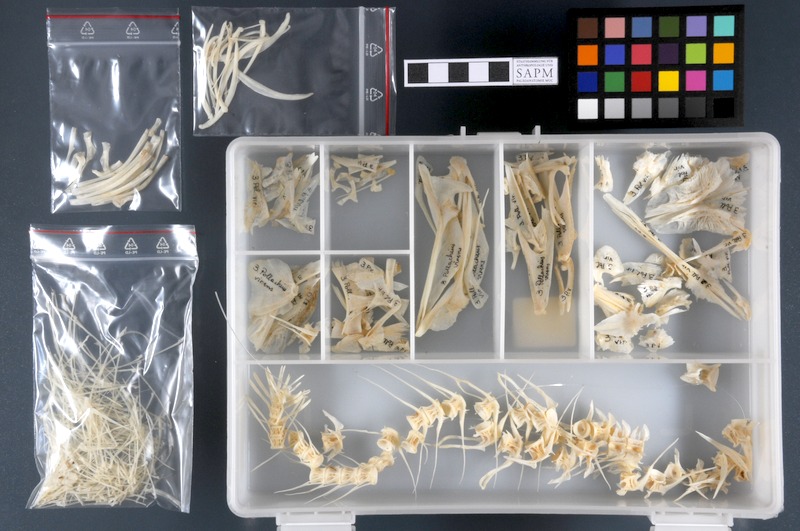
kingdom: Animalia
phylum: Chordata
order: Gadiformes
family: Gadidae
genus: Pollachius
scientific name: Pollachius virens
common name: Saithe
